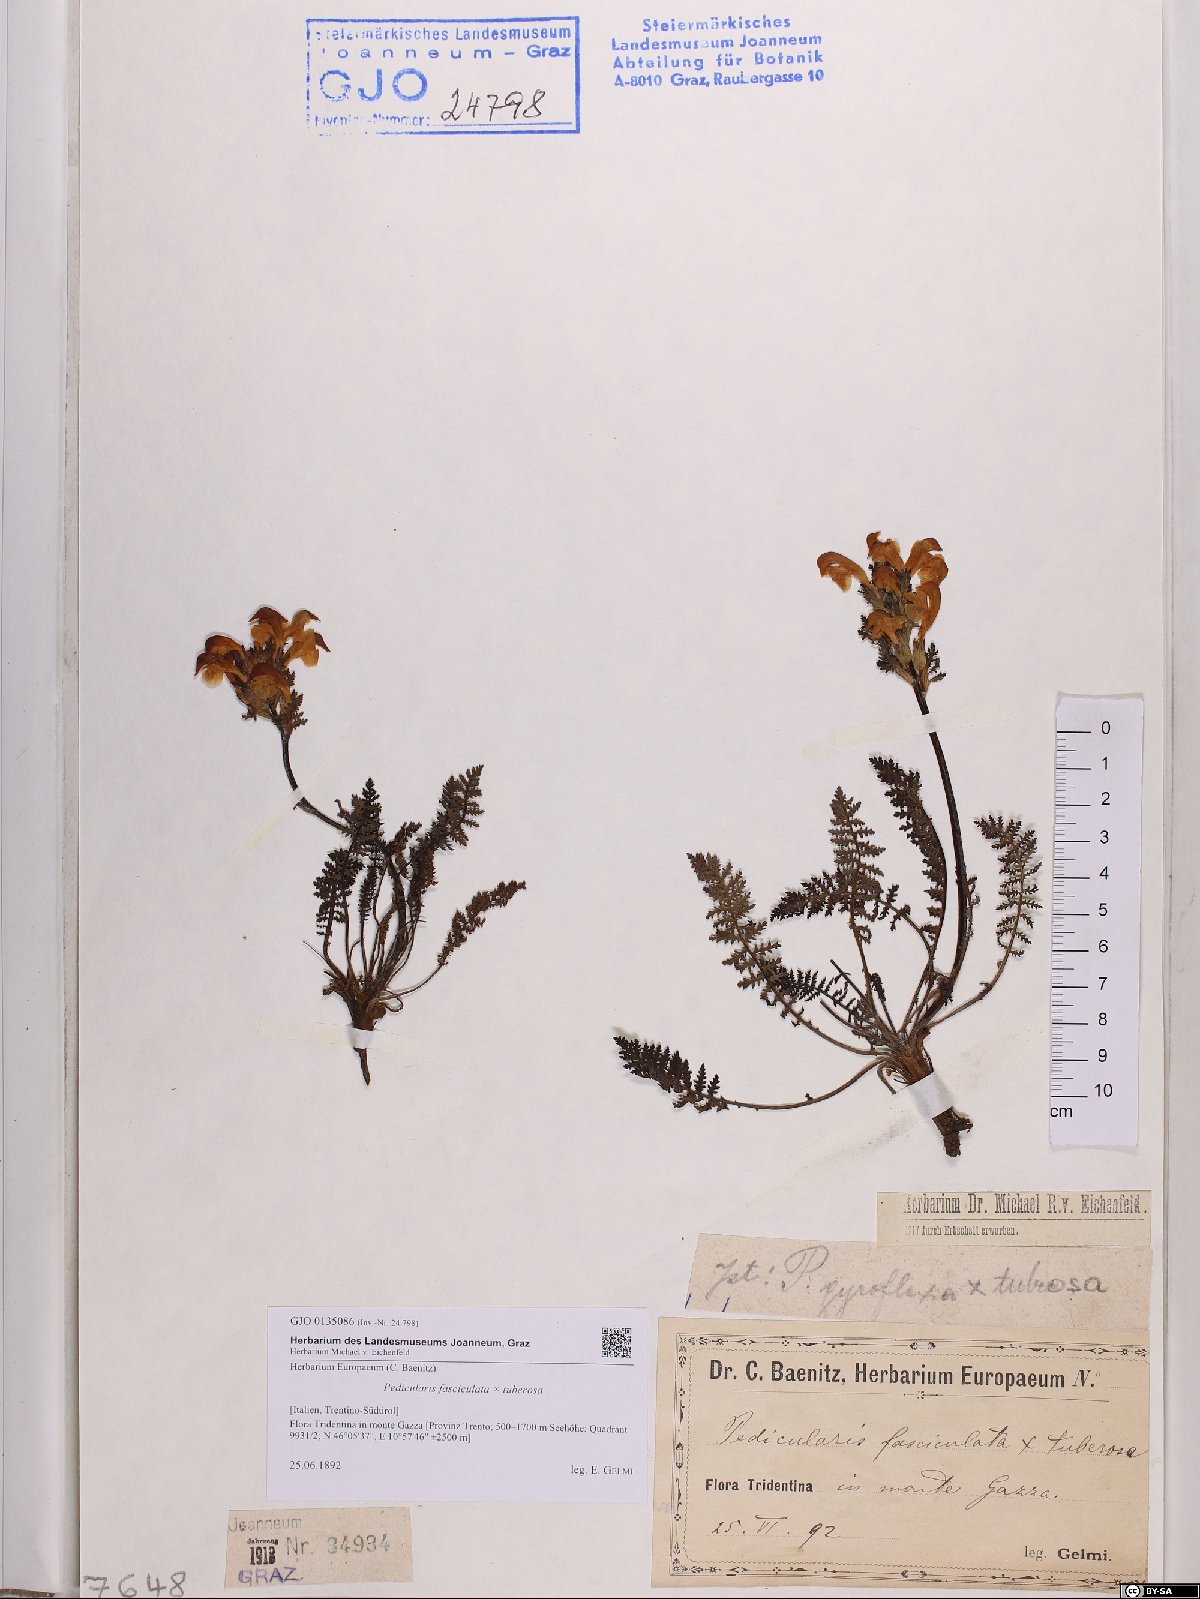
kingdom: Plantae
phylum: Tracheophyta
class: Magnoliopsida
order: Lamiales
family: Orobanchaceae
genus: Pedicularis
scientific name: Pedicularis verlotii
